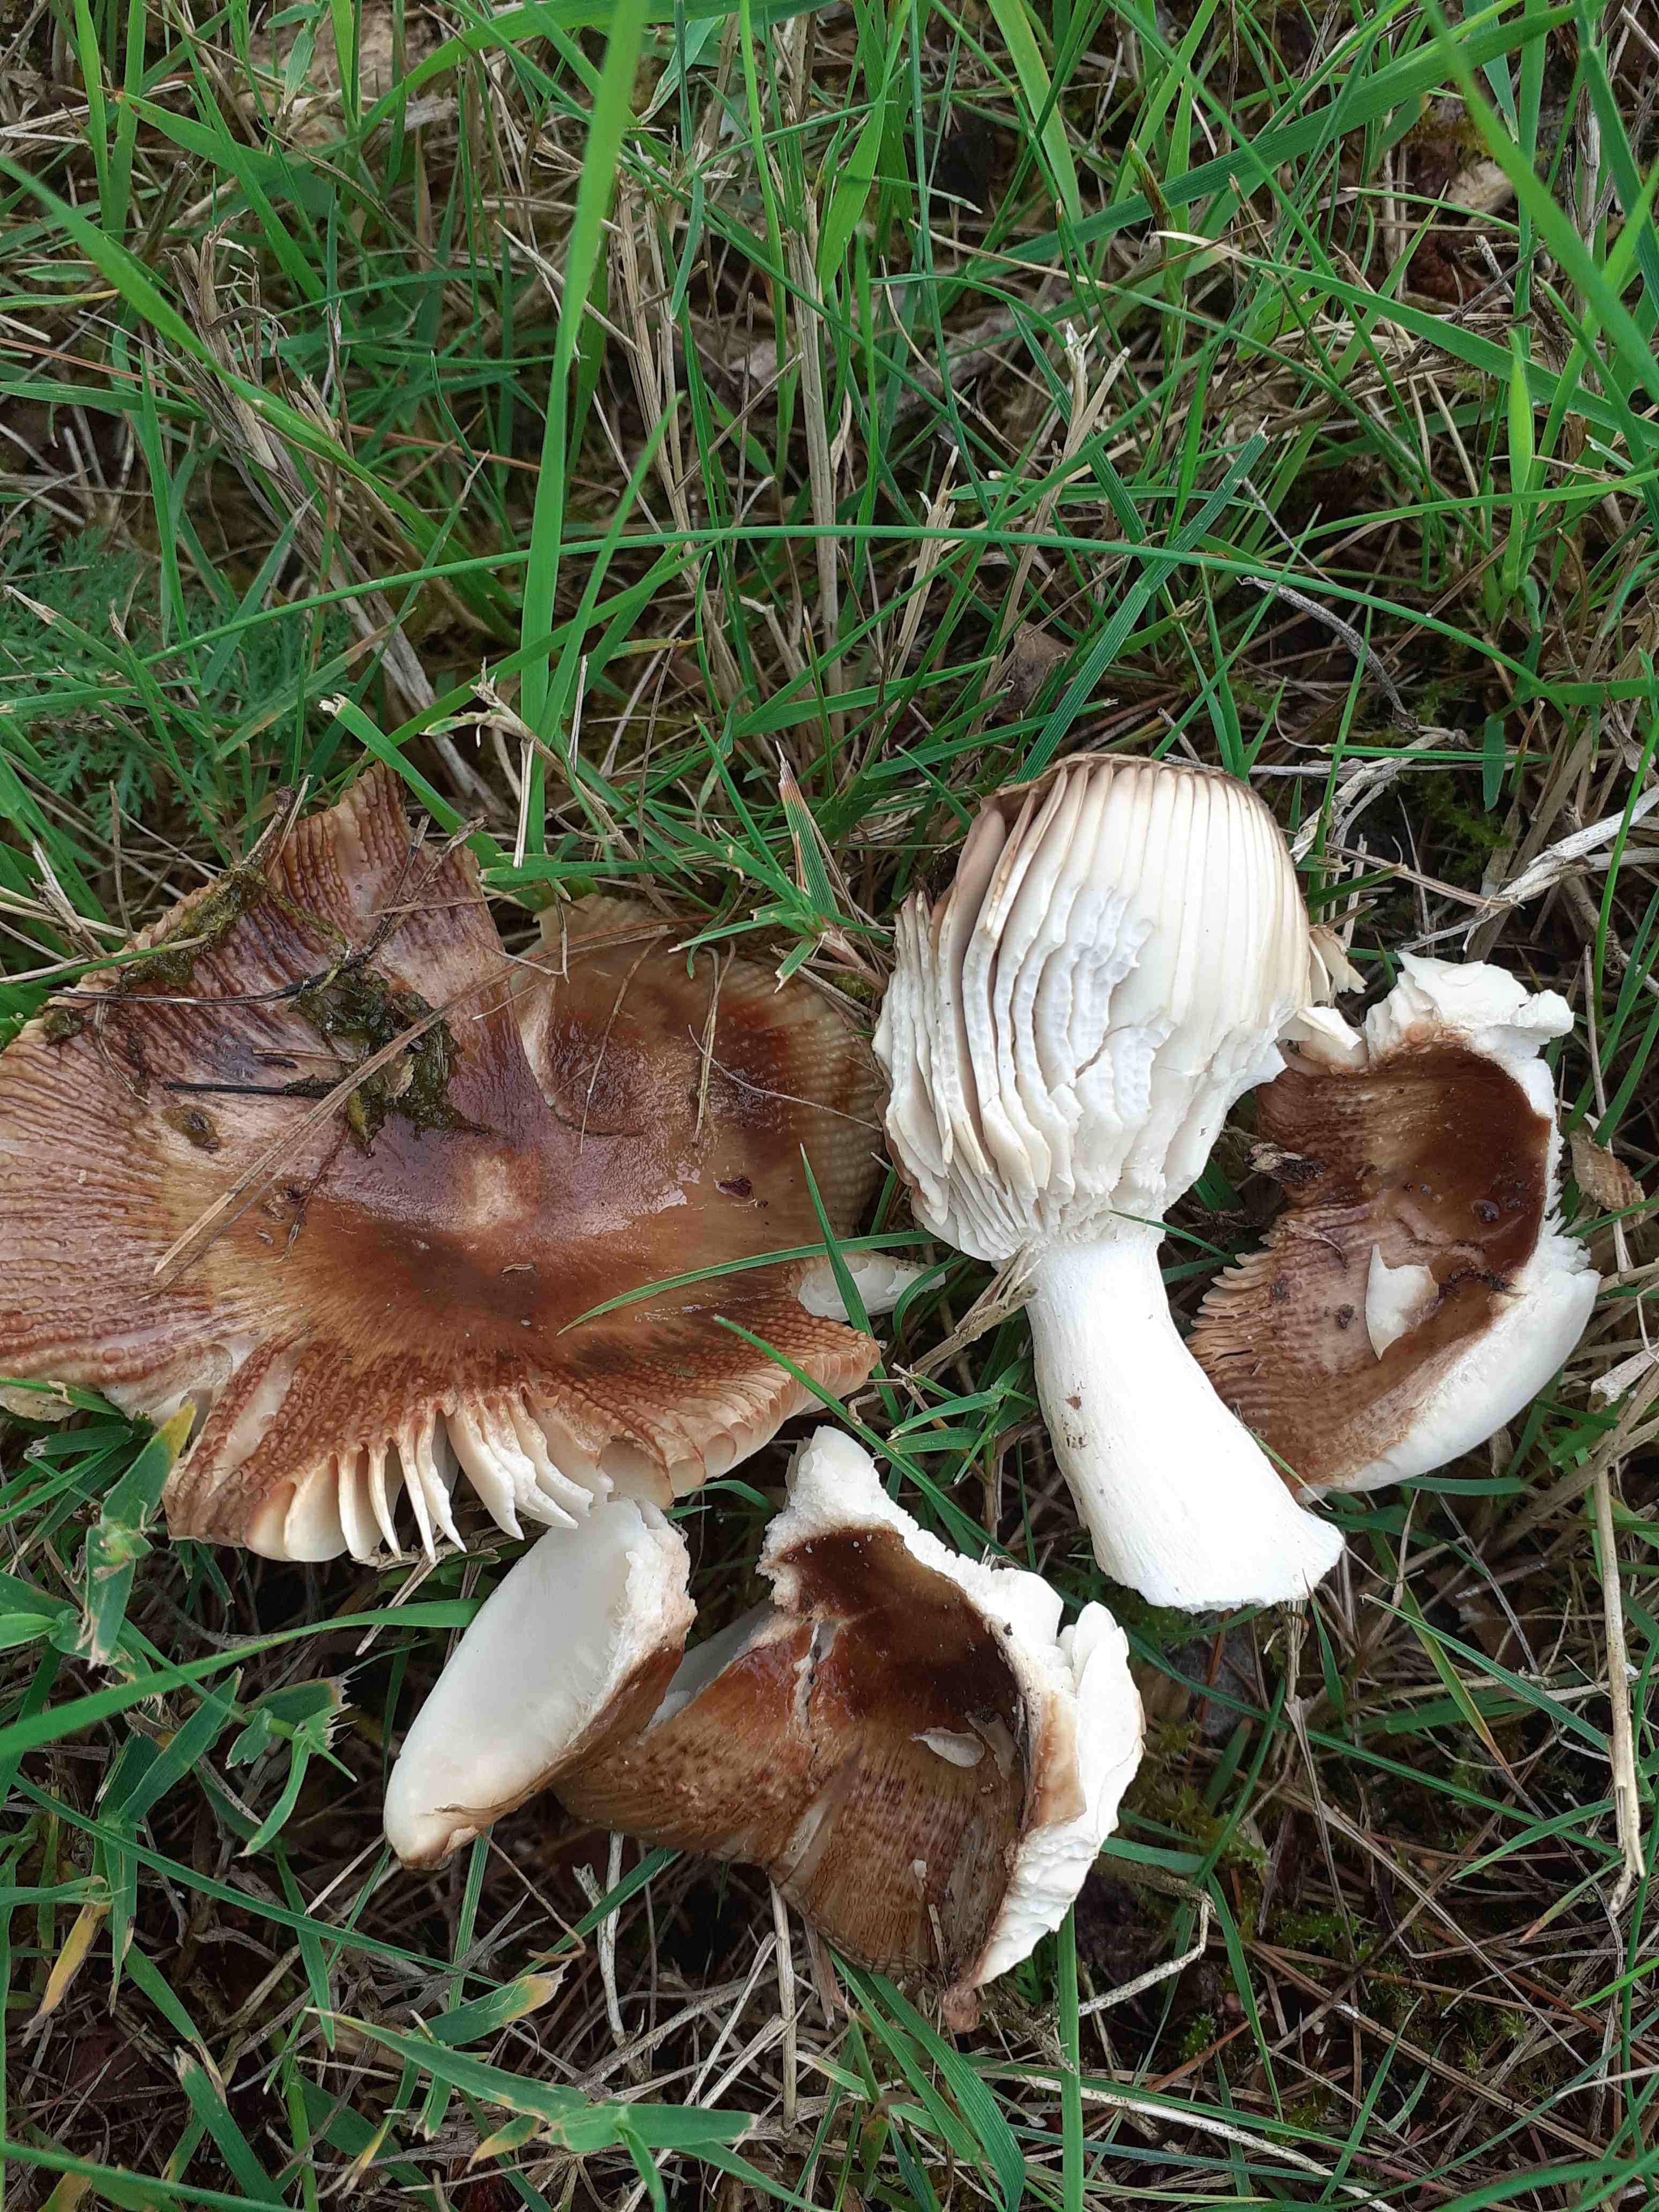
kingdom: Fungi
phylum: Basidiomycota
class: Agaricomycetes
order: Russulales
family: Russulaceae
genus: Russula
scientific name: Russula recondita
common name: mild kam-skørhat
